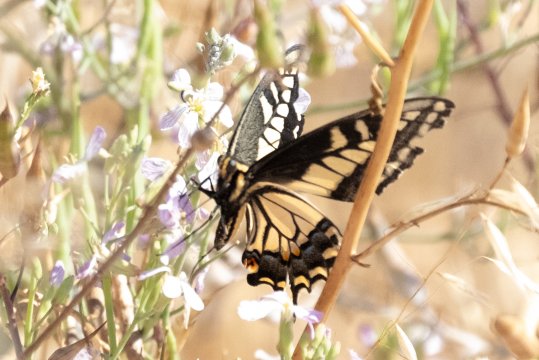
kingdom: Animalia
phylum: Arthropoda
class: Insecta
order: Lepidoptera
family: Papilionidae
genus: Papilio
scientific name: Papilio zelicaon
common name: Anise Swallowtail
